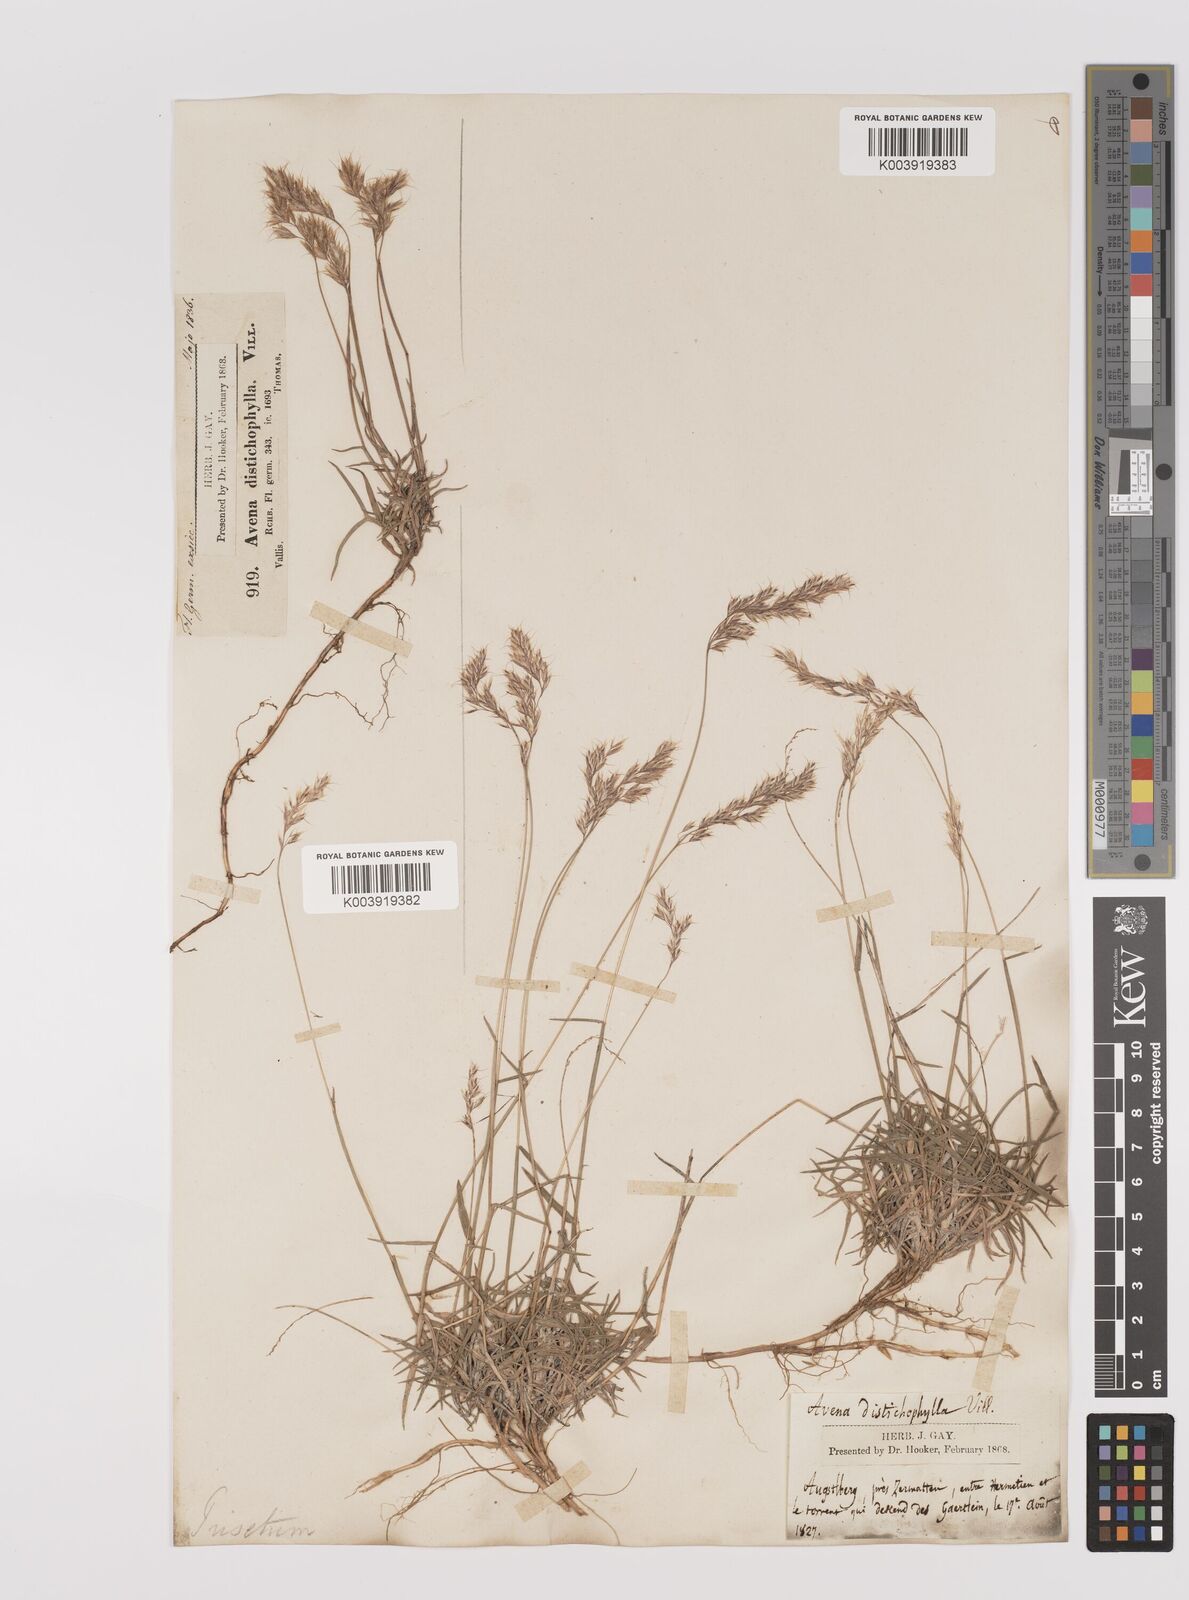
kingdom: Plantae
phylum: Tracheophyta
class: Liliopsida
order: Poales
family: Poaceae
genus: Acrospelion
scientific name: Acrospelion distichophyllum
